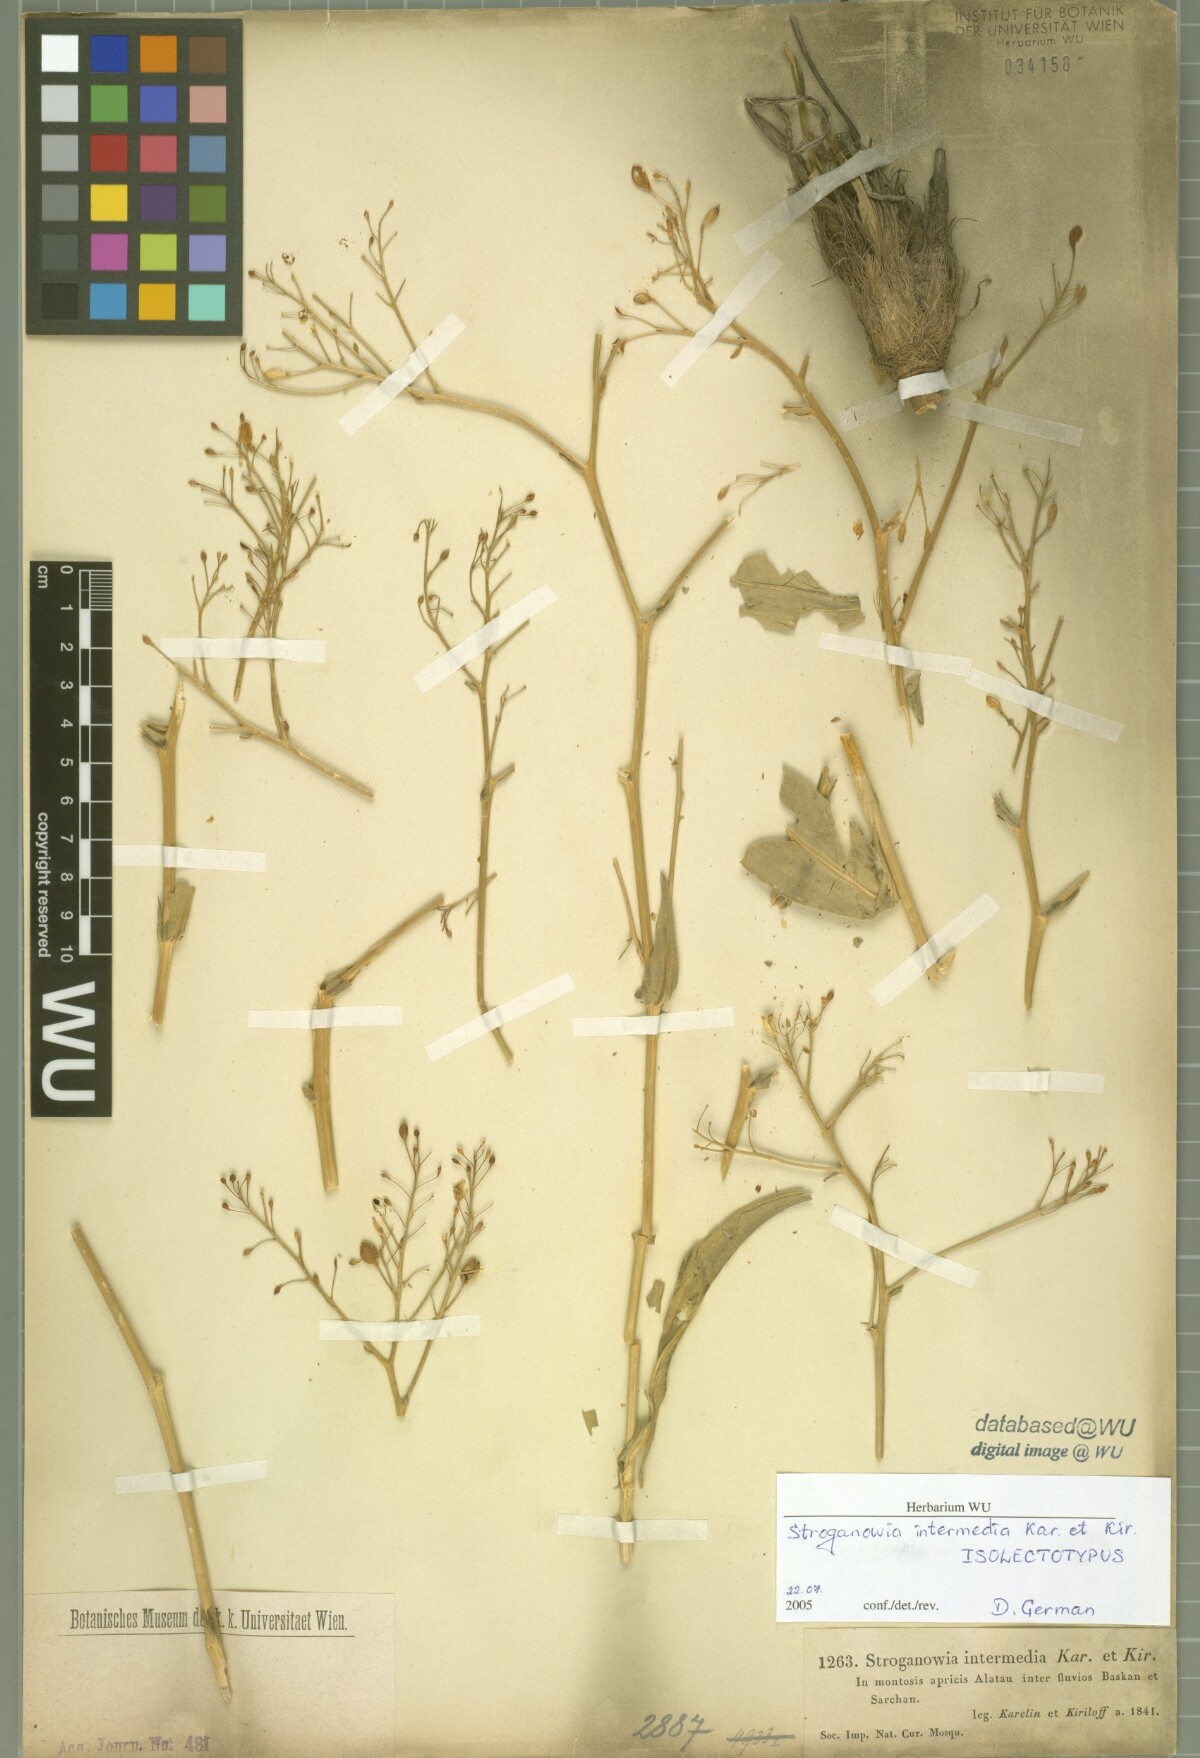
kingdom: Plantae
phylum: Tracheophyta
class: Magnoliopsida
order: Brassicales
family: Brassicaceae
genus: Lepidium
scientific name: Lepidium karelinianum
